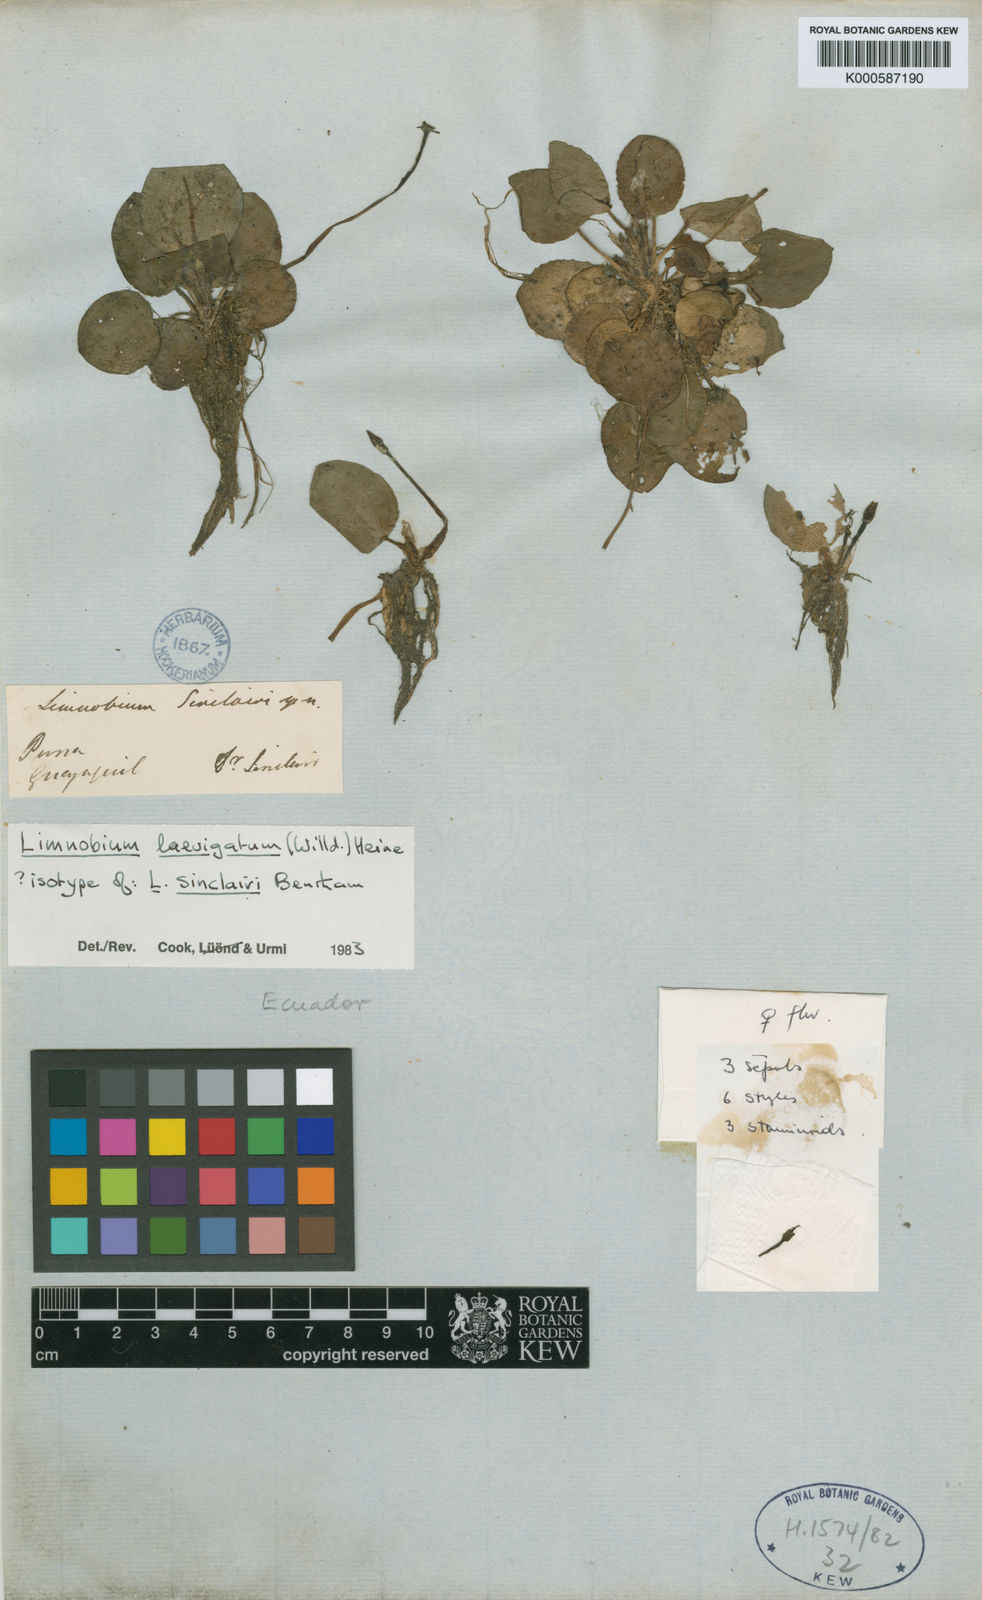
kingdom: Plantae
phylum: Tracheophyta
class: Liliopsida
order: Alismatales
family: Hydrocharitaceae
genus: Hydrocharis
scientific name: Hydrocharis laevigata
